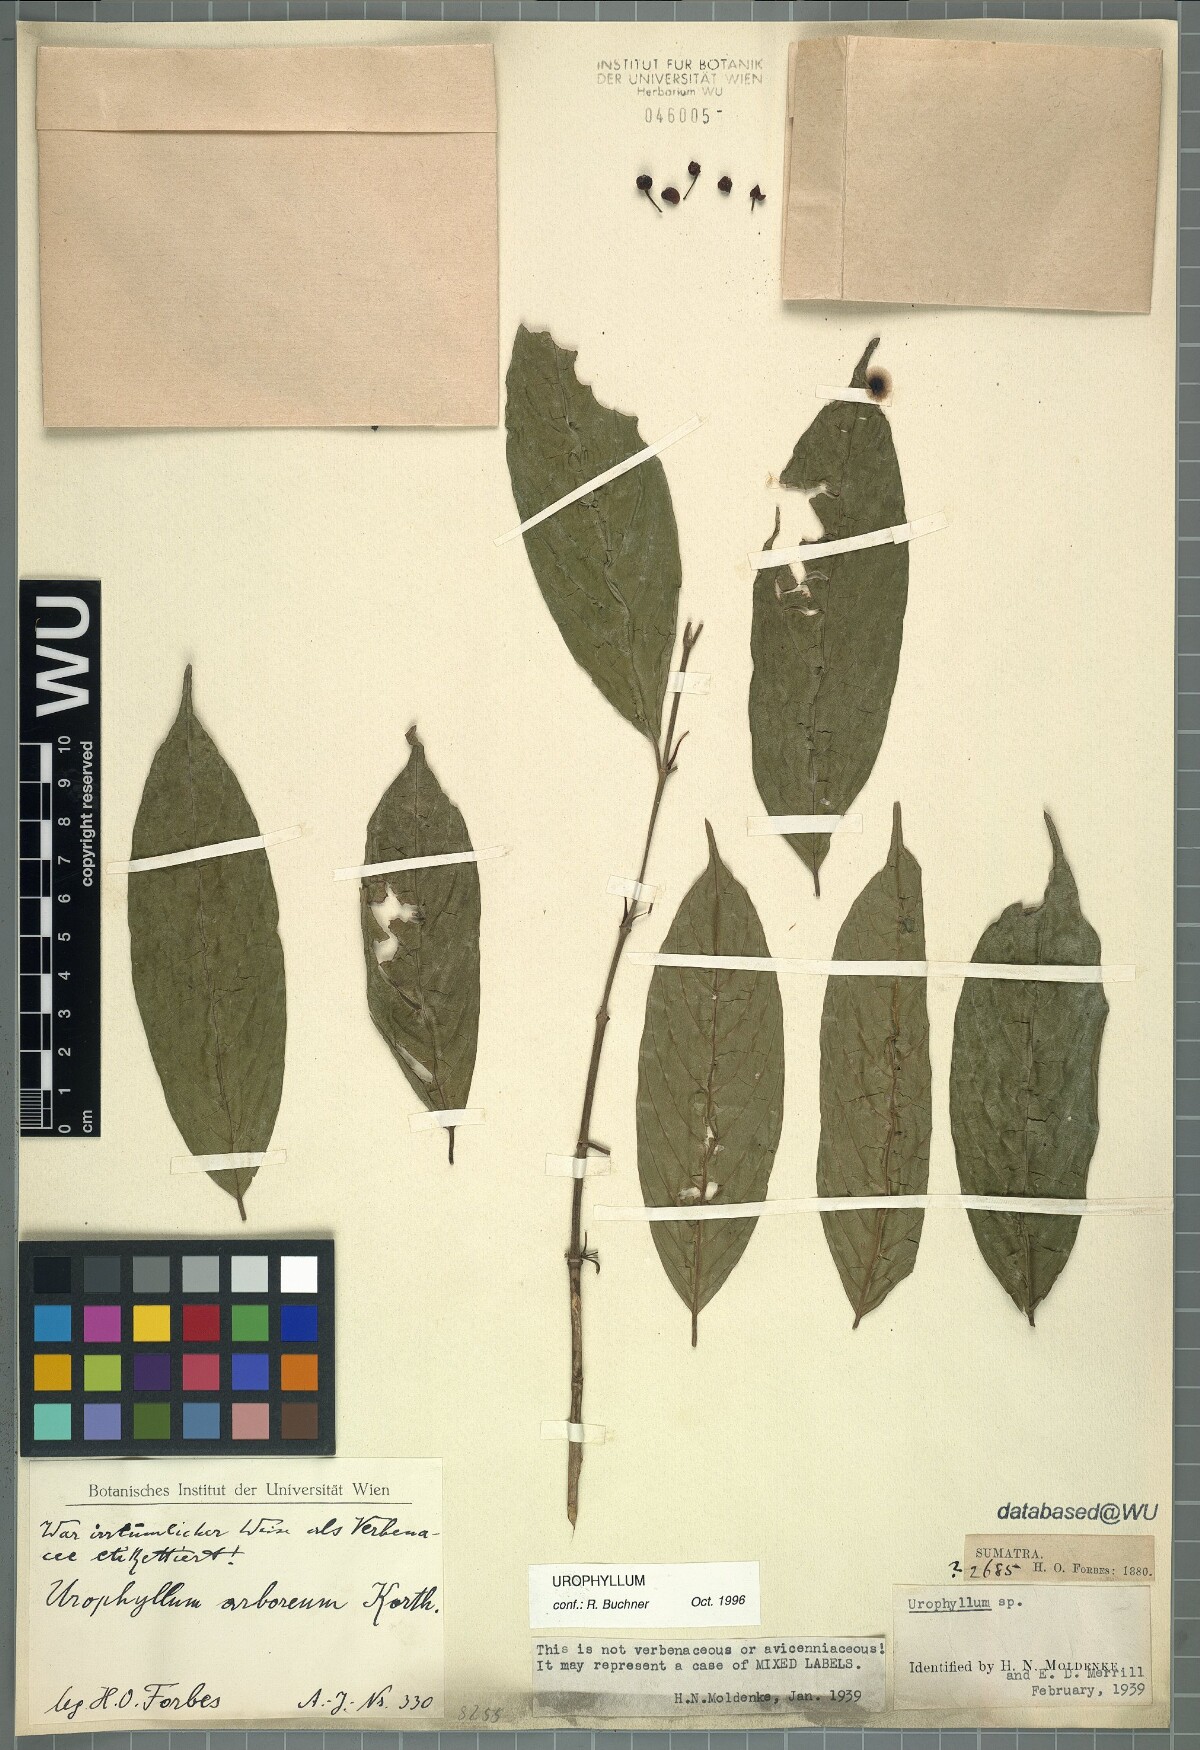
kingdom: Plantae
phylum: Tracheophyta
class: Magnoliopsida
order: Gentianales
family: Rubiaceae
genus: Urophyllum
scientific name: Urophyllum
